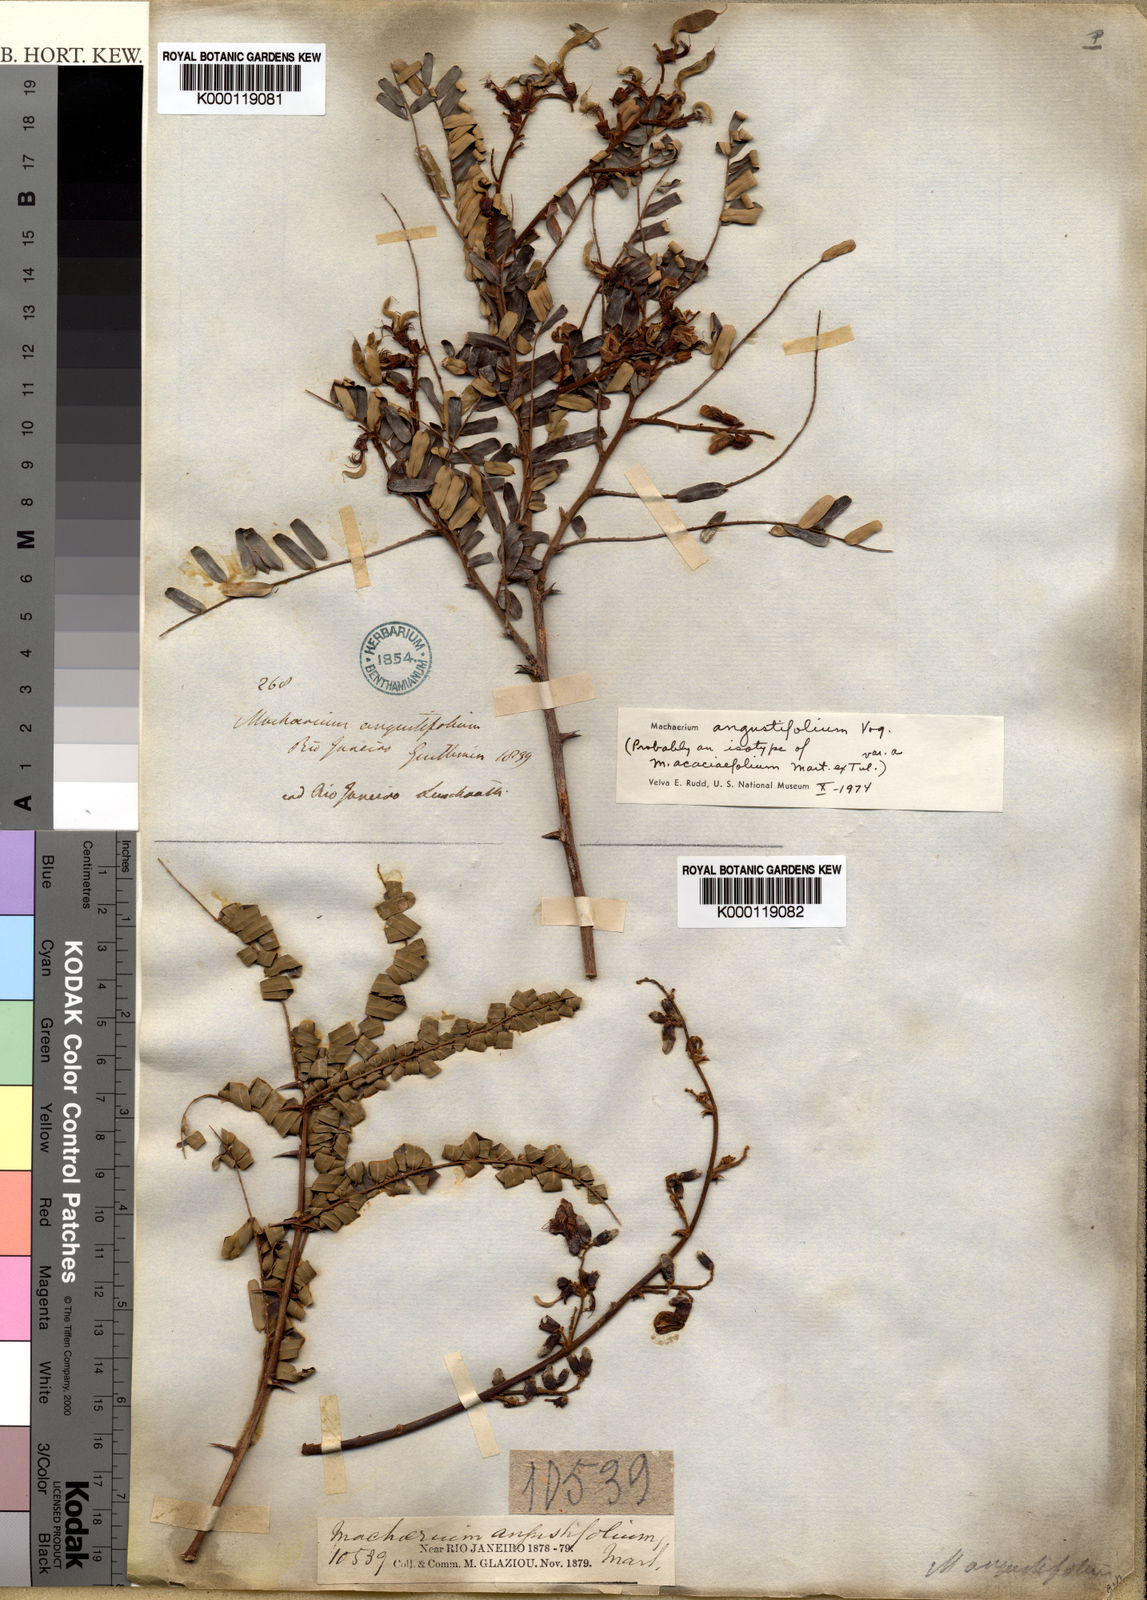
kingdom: Plantae
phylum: Tracheophyta
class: Magnoliopsida
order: Fabales
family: Fabaceae
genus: Machaerium
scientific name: Machaerium hirtum
